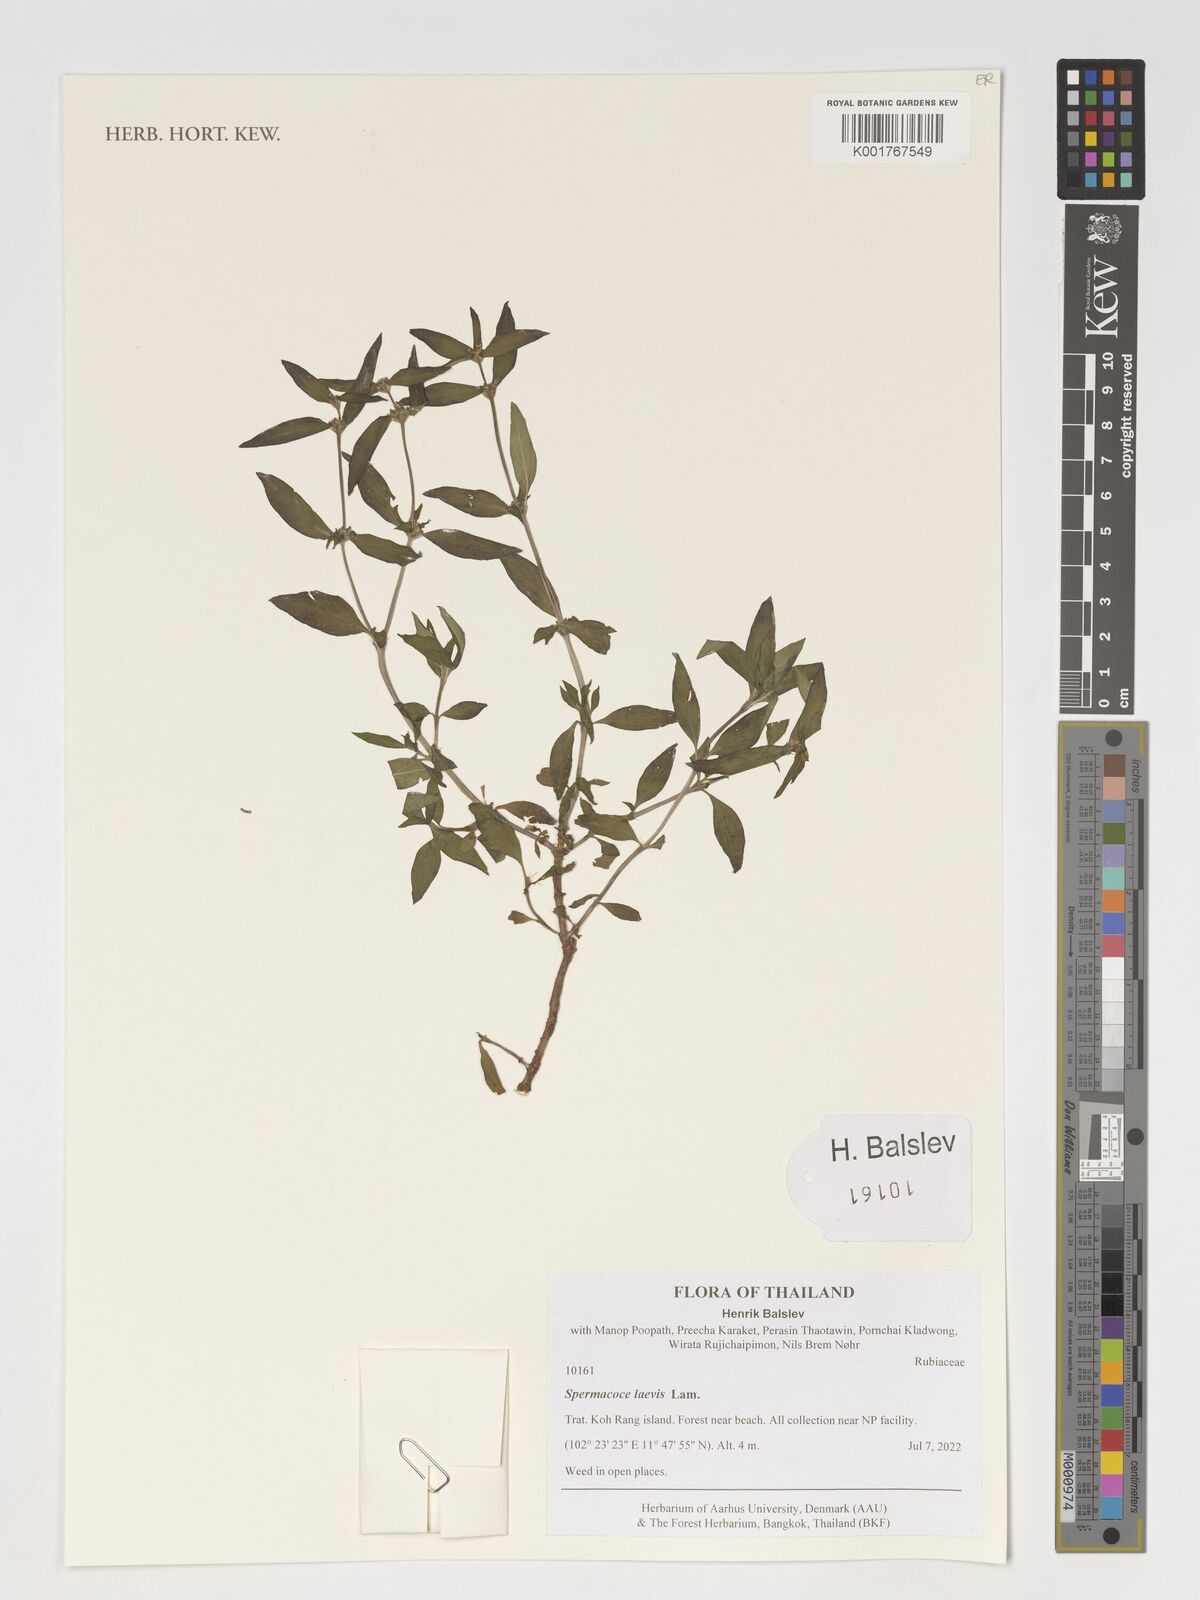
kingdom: Plantae
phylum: Tracheophyta
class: Magnoliopsida
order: Gentianales
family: Rubiaceae
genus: Spermacoce
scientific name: Spermacoce tenuior
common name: River false buttonweed
